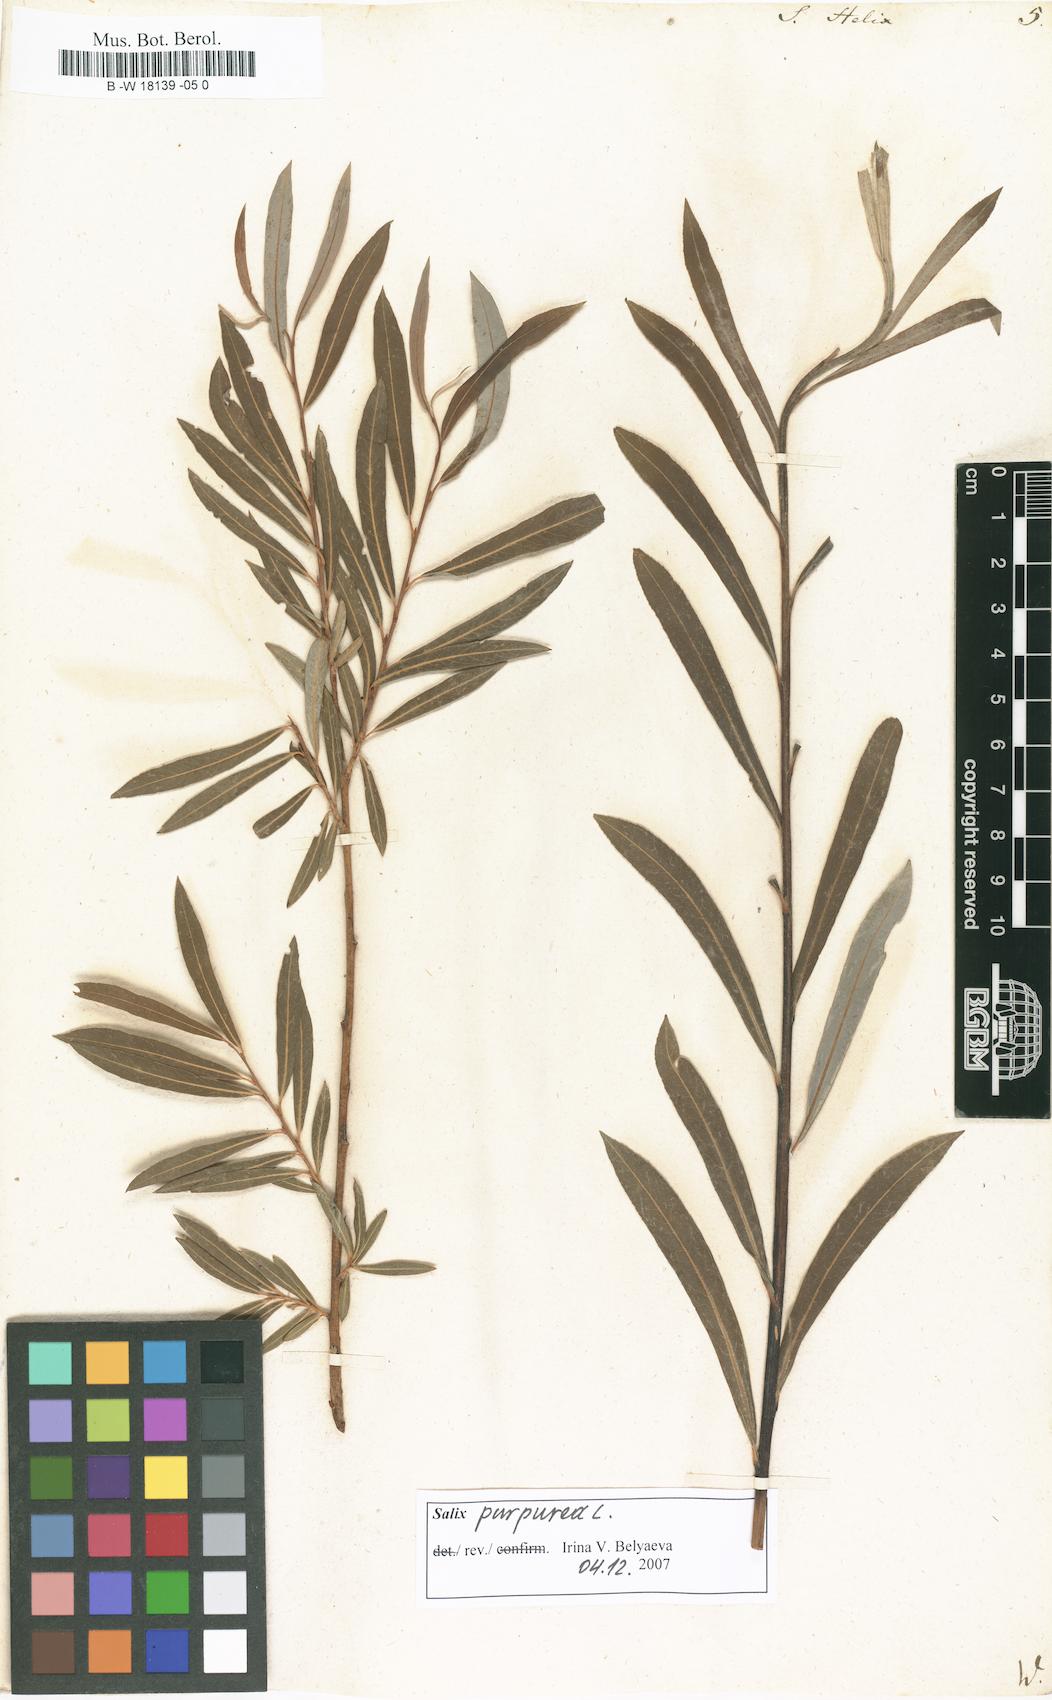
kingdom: Plantae
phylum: Tracheophyta
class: Magnoliopsida
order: Malpighiales
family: Salicaceae
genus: Salix
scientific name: Salix purpurea
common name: Purple willow
